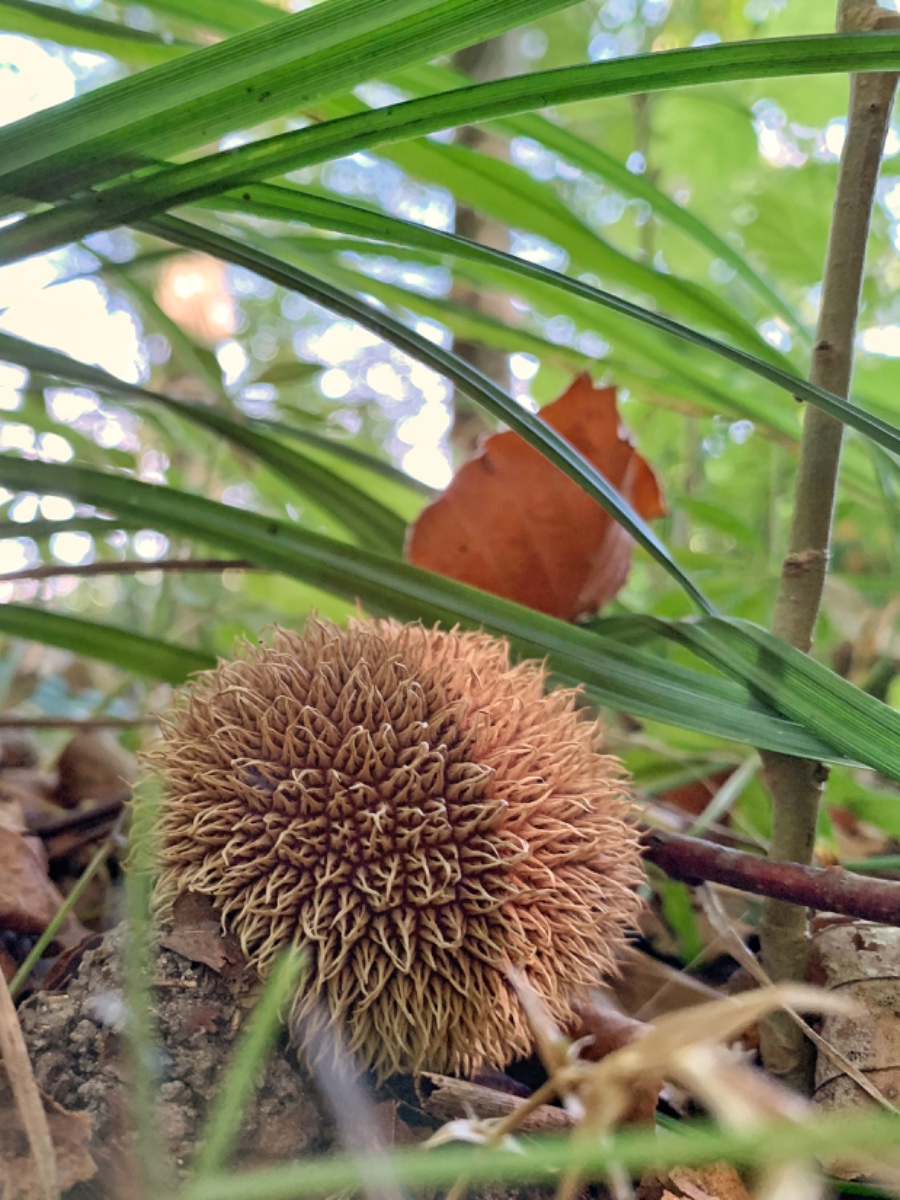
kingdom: Fungi
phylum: Basidiomycota
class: Agaricomycetes
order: Agaricales
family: Lycoperdaceae
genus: Lycoperdon
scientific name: Lycoperdon echinatum
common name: pindsvine-støvbold
